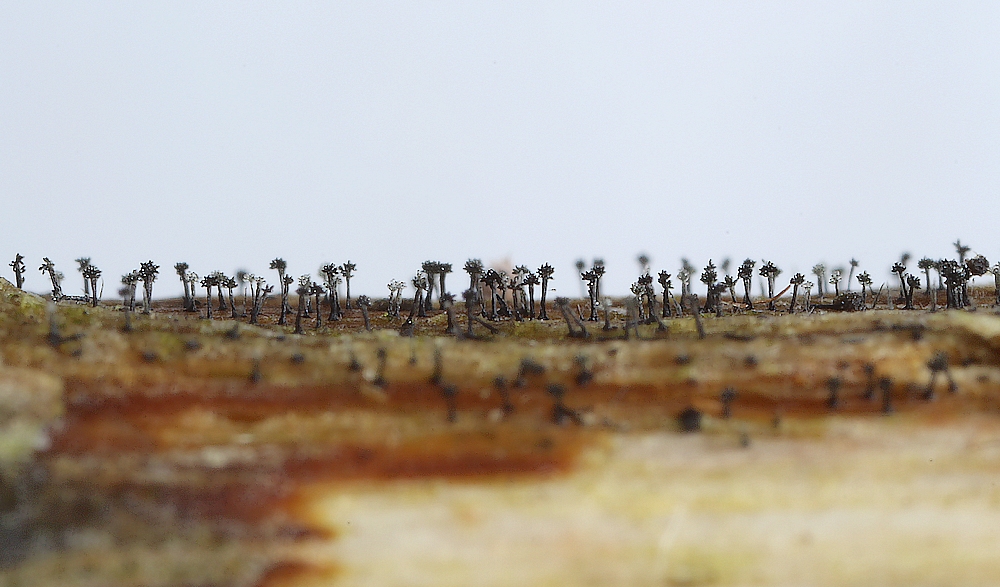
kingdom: Fungi
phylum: Ascomycota
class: Dothideomycetes
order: Pleosporales
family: Torulaceae
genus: Dendryphion
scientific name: Dendryphion comosum
